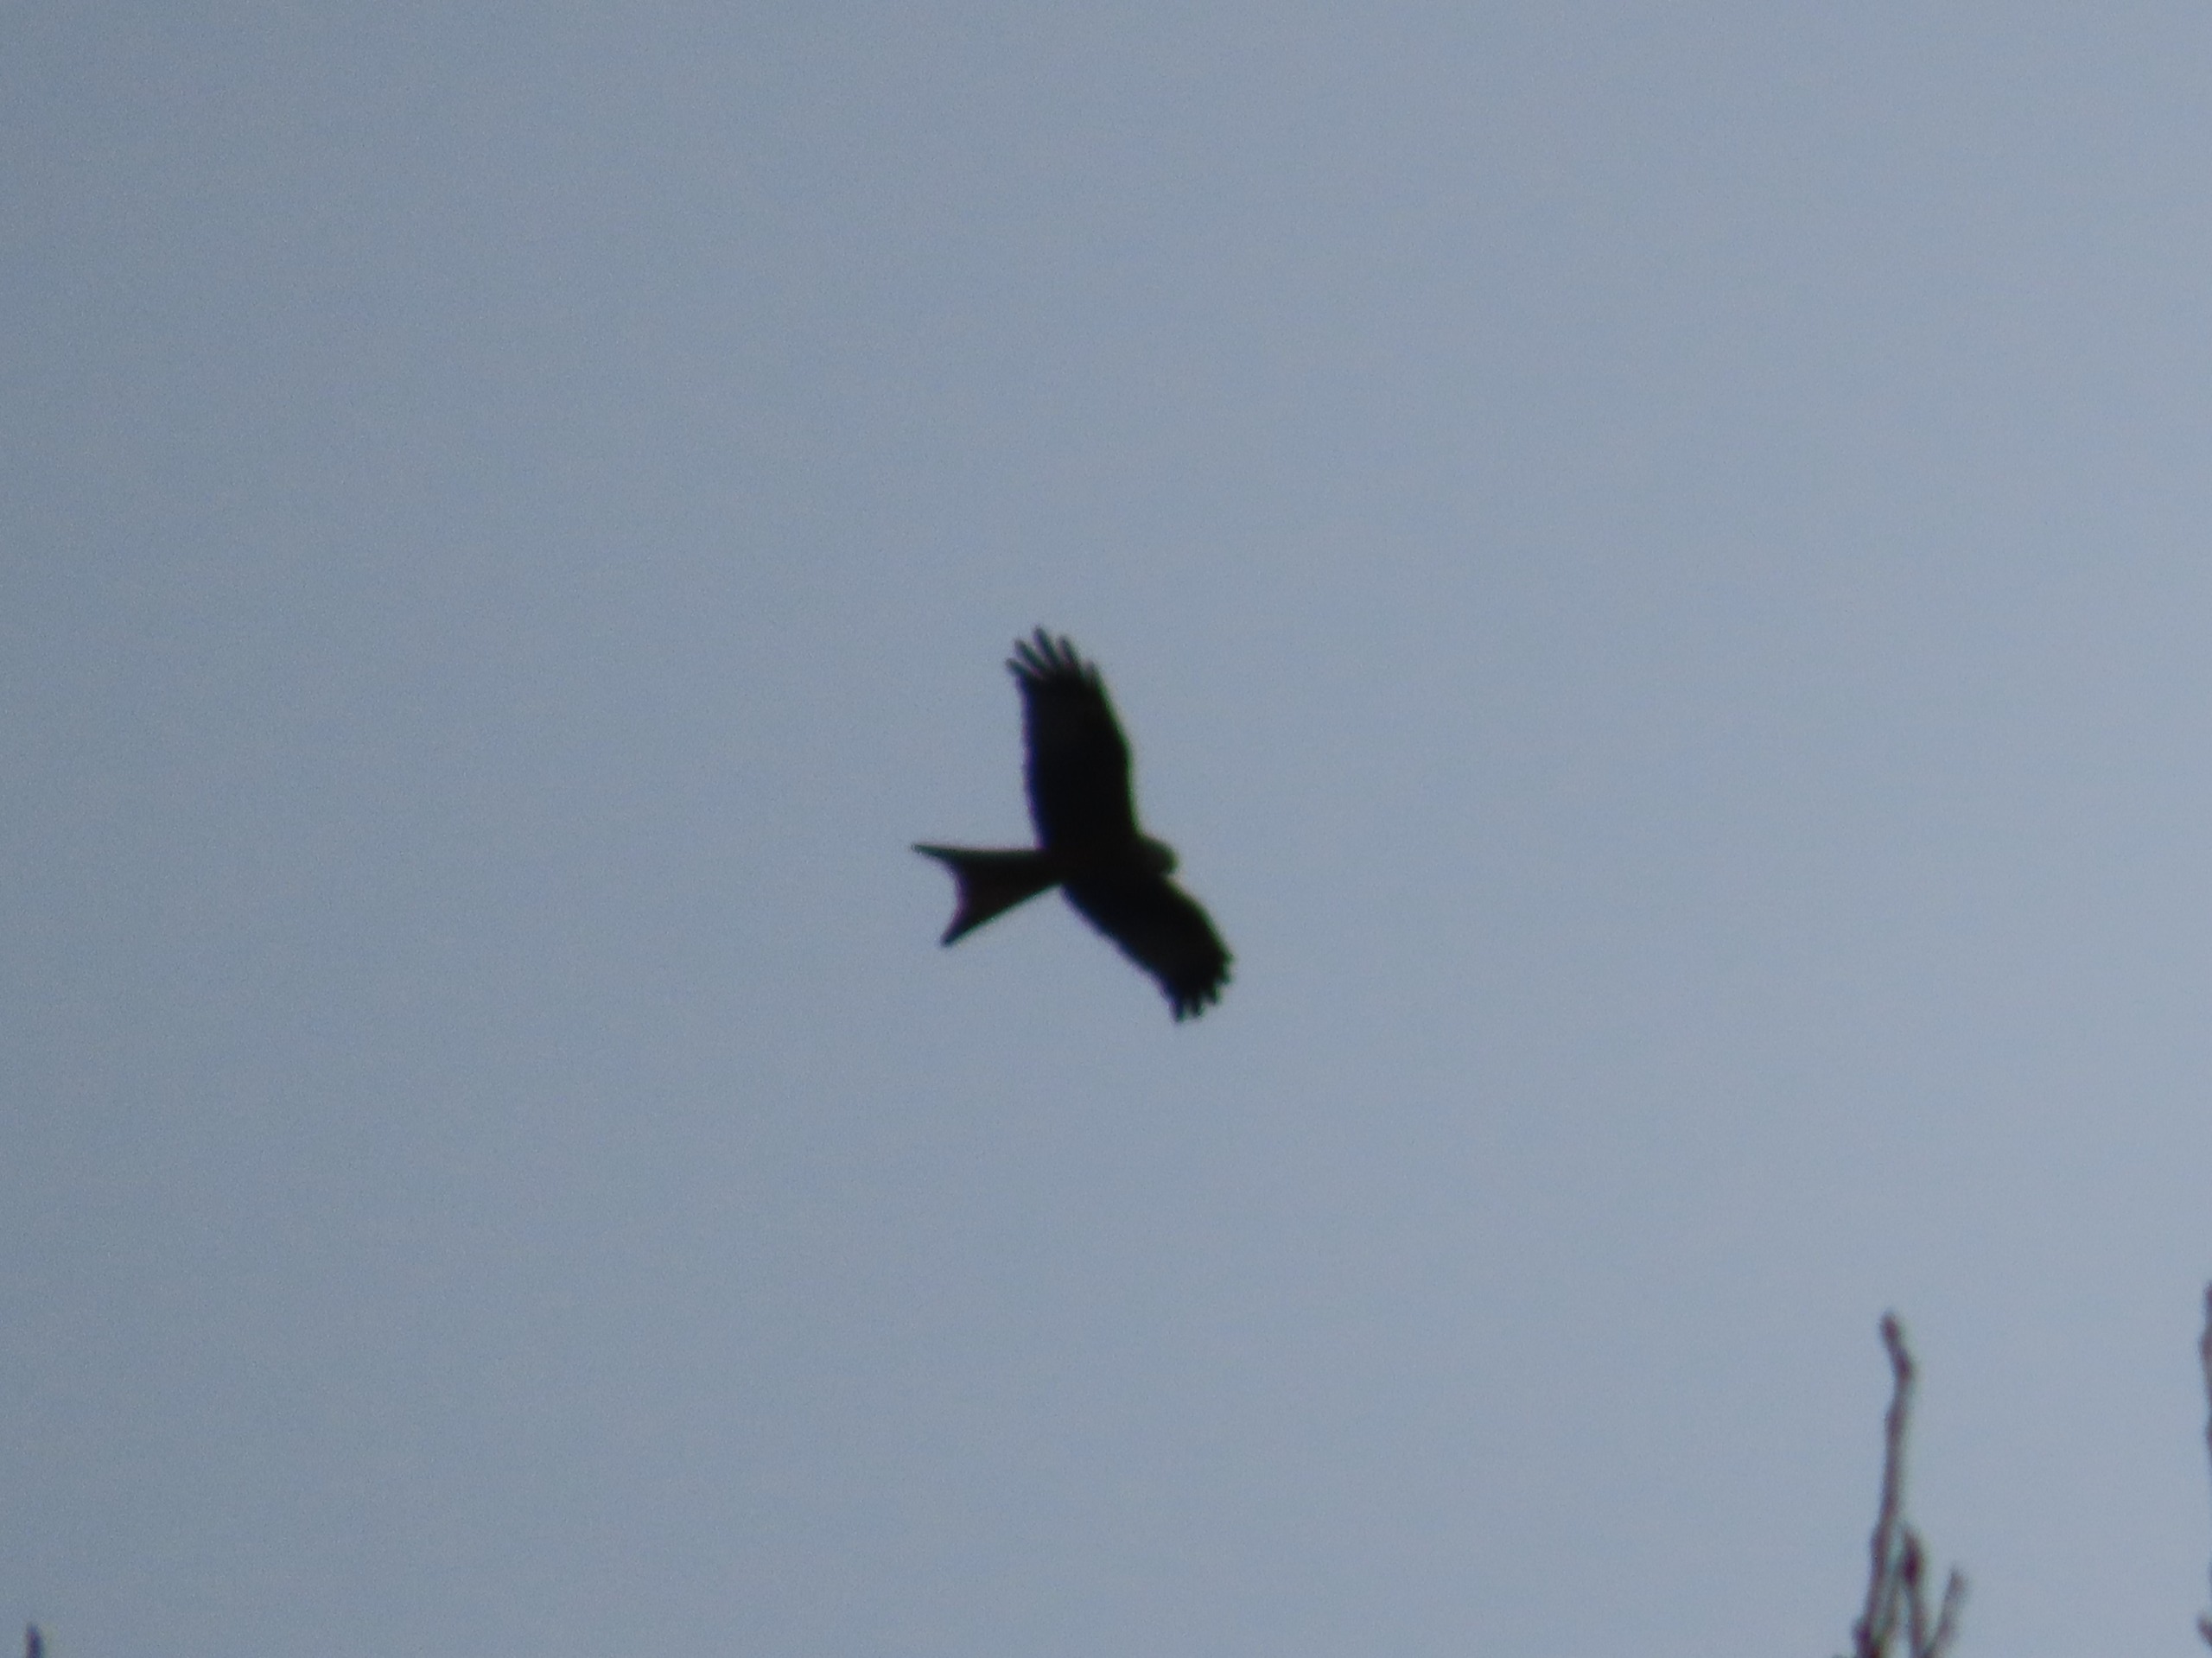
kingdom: Animalia
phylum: Chordata
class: Aves
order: Accipitriformes
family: Accipitridae
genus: Milvus
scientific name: Milvus milvus
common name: Rød glente
